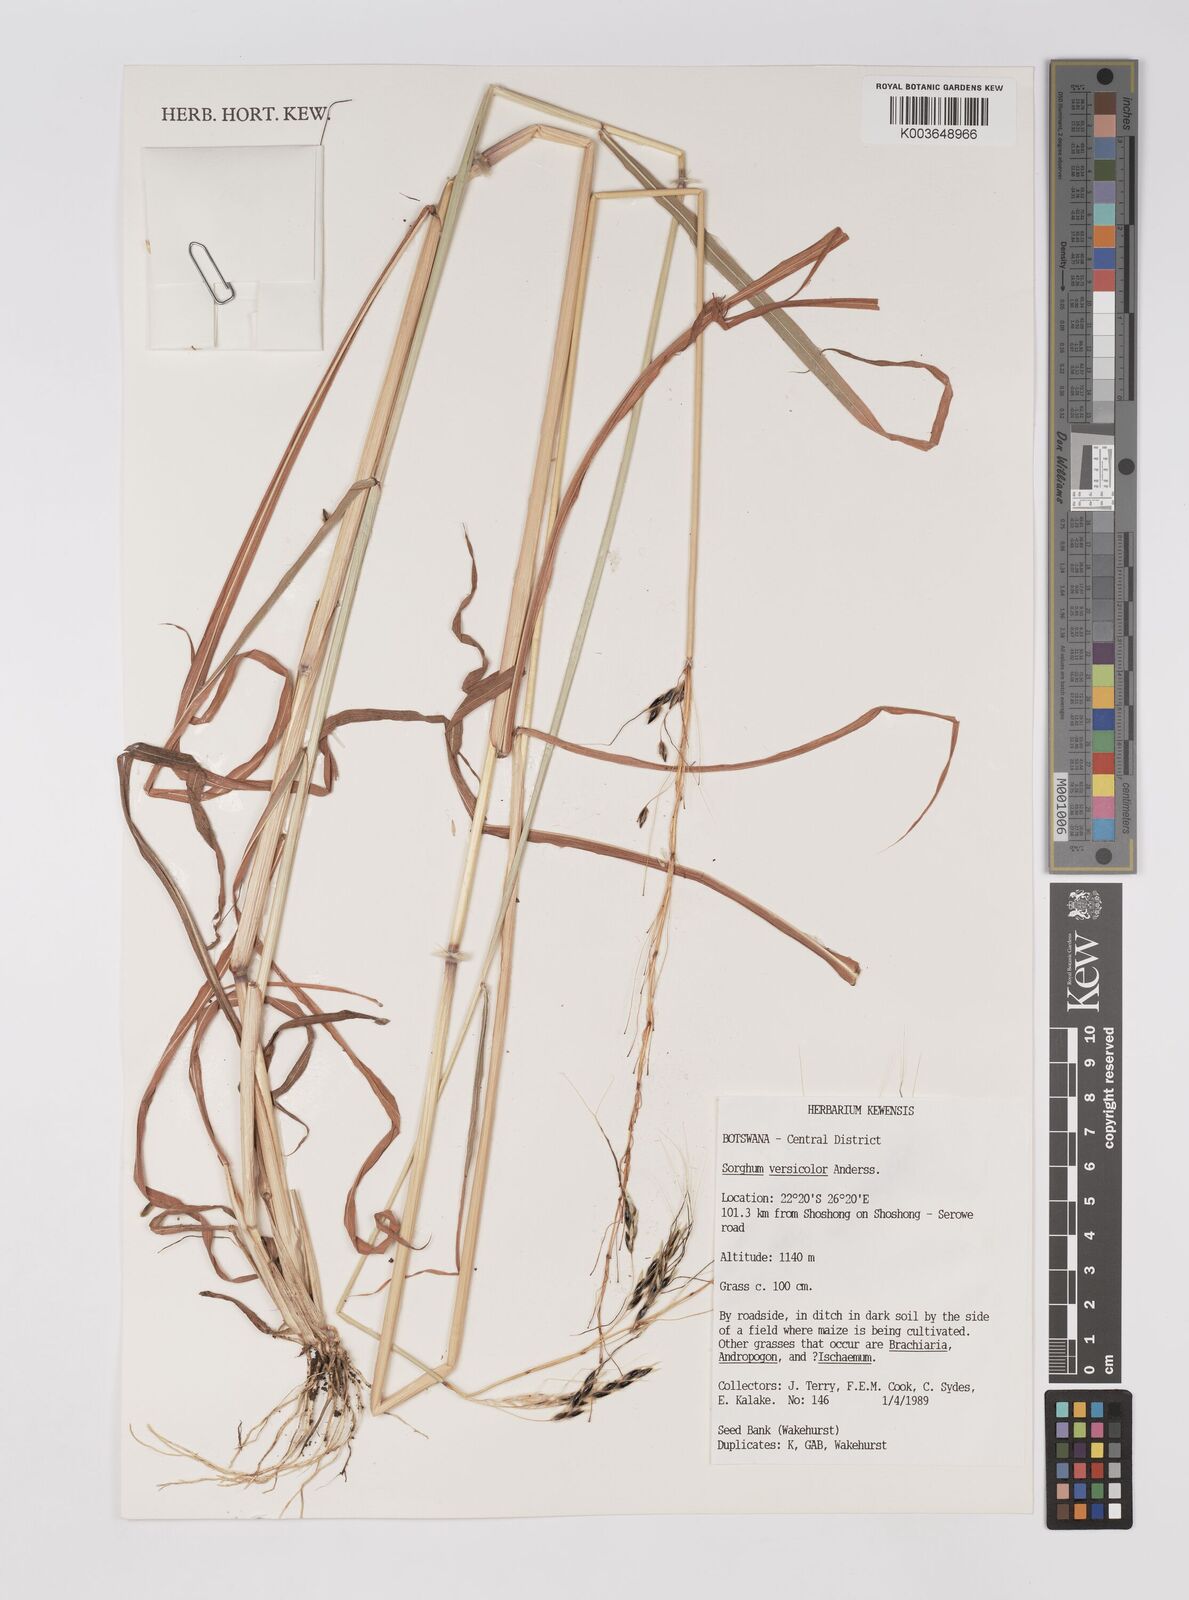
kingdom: Plantae
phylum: Tracheophyta
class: Liliopsida
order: Poales
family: Poaceae
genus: Sarga
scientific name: Sarga versicolor
